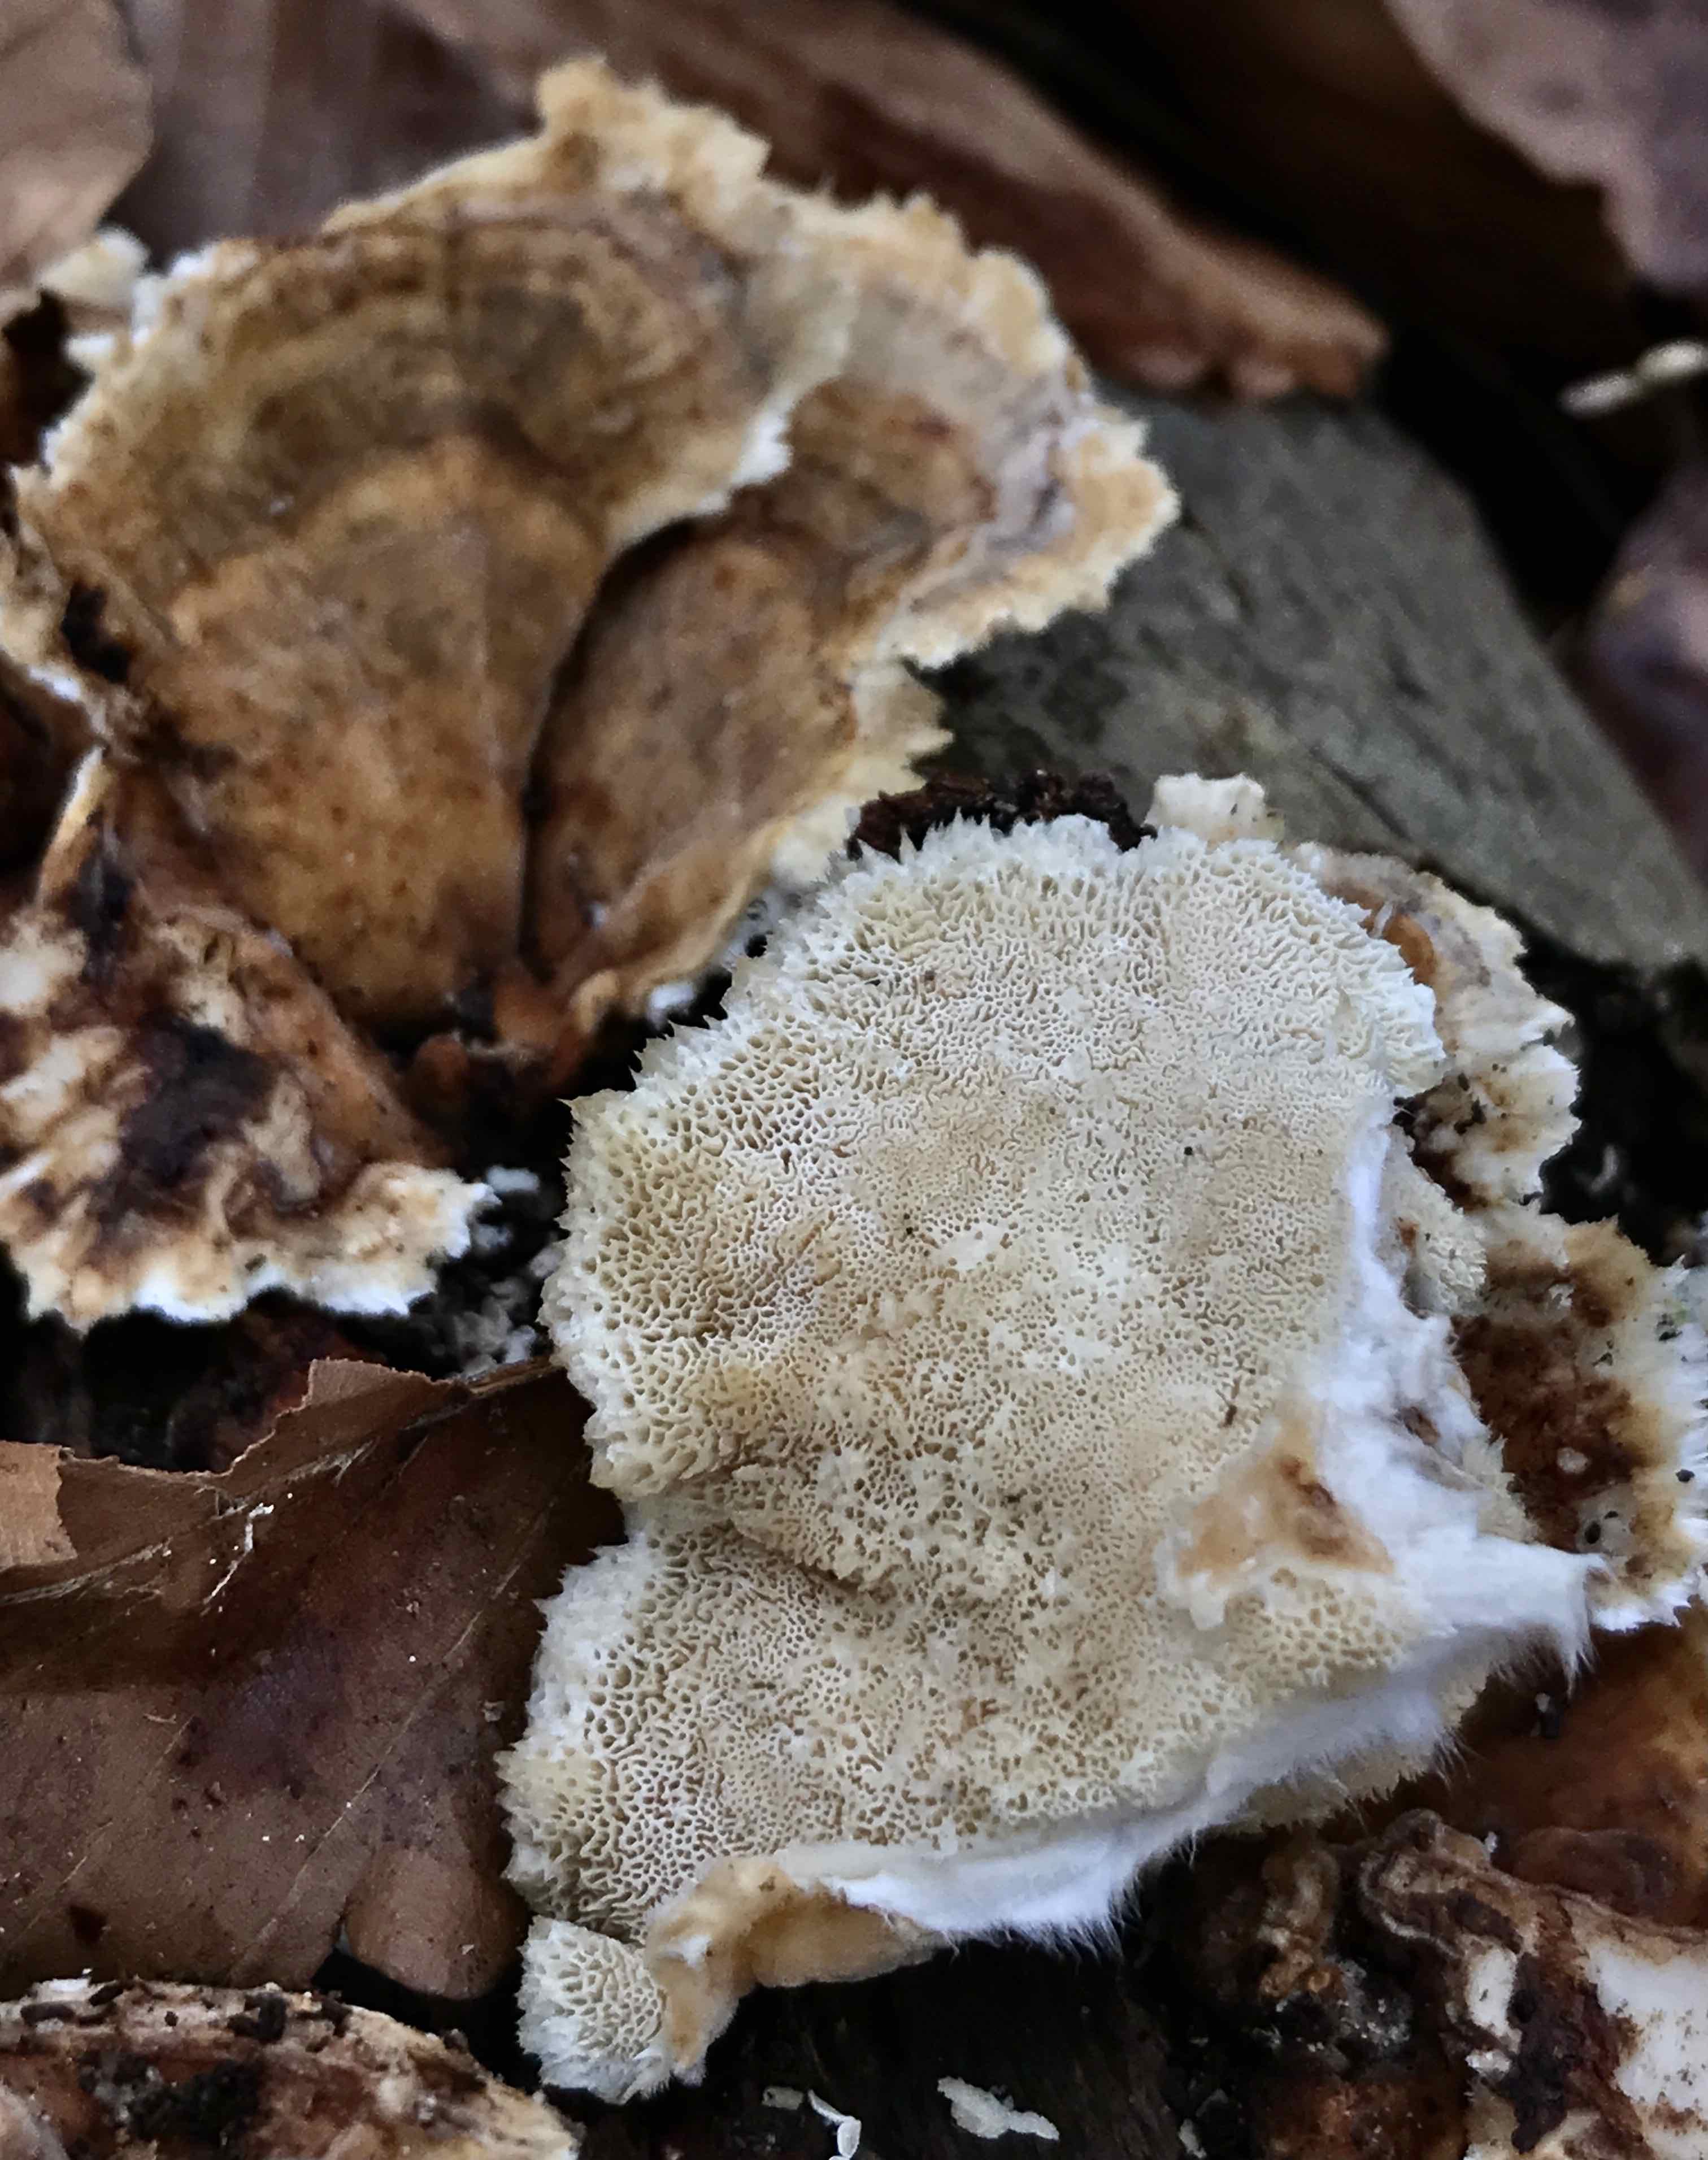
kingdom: Fungi
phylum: Basidiomycota
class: Agaricomycetes
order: Polyporales
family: Polyporaceae
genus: Trametes
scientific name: Trametes ochracea
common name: bæltet læderporesvamp
